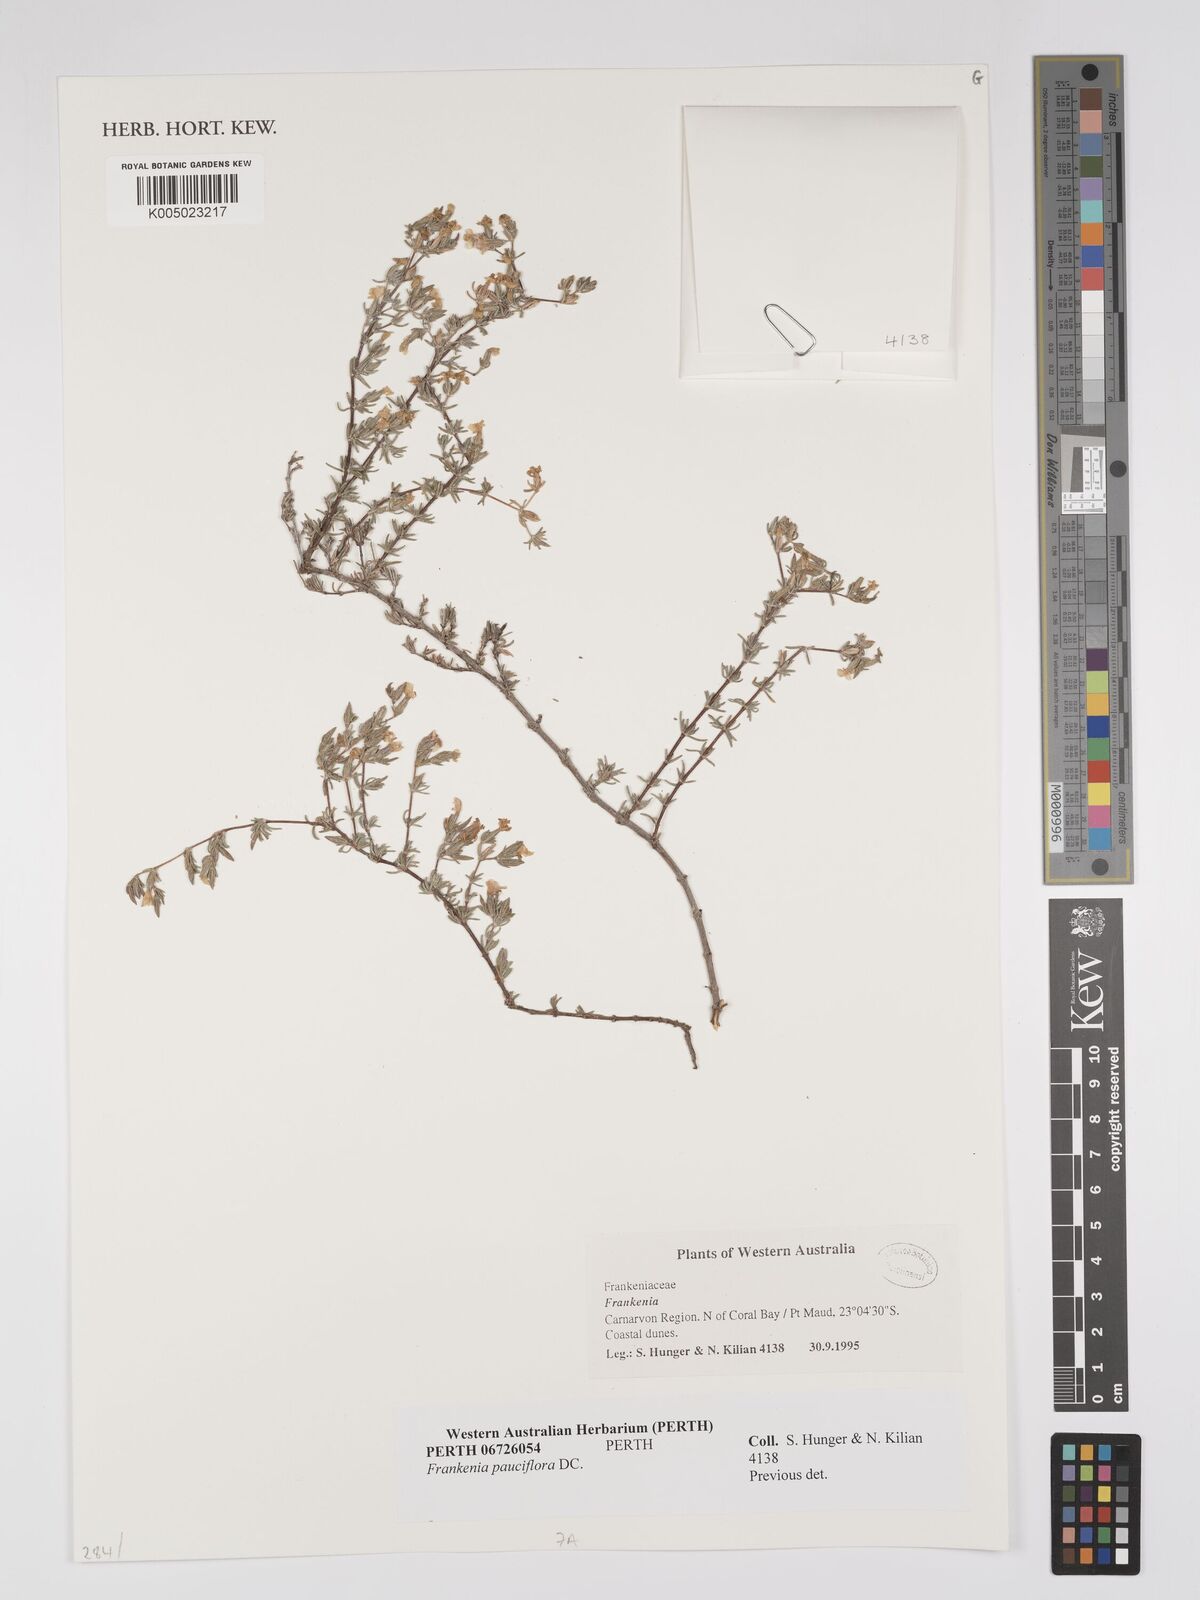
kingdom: Plantae
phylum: Tracheophyta
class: Magnoliopsida
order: Caryophyllales
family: Frankeniaceae
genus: Frankenia
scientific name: Frankenia
